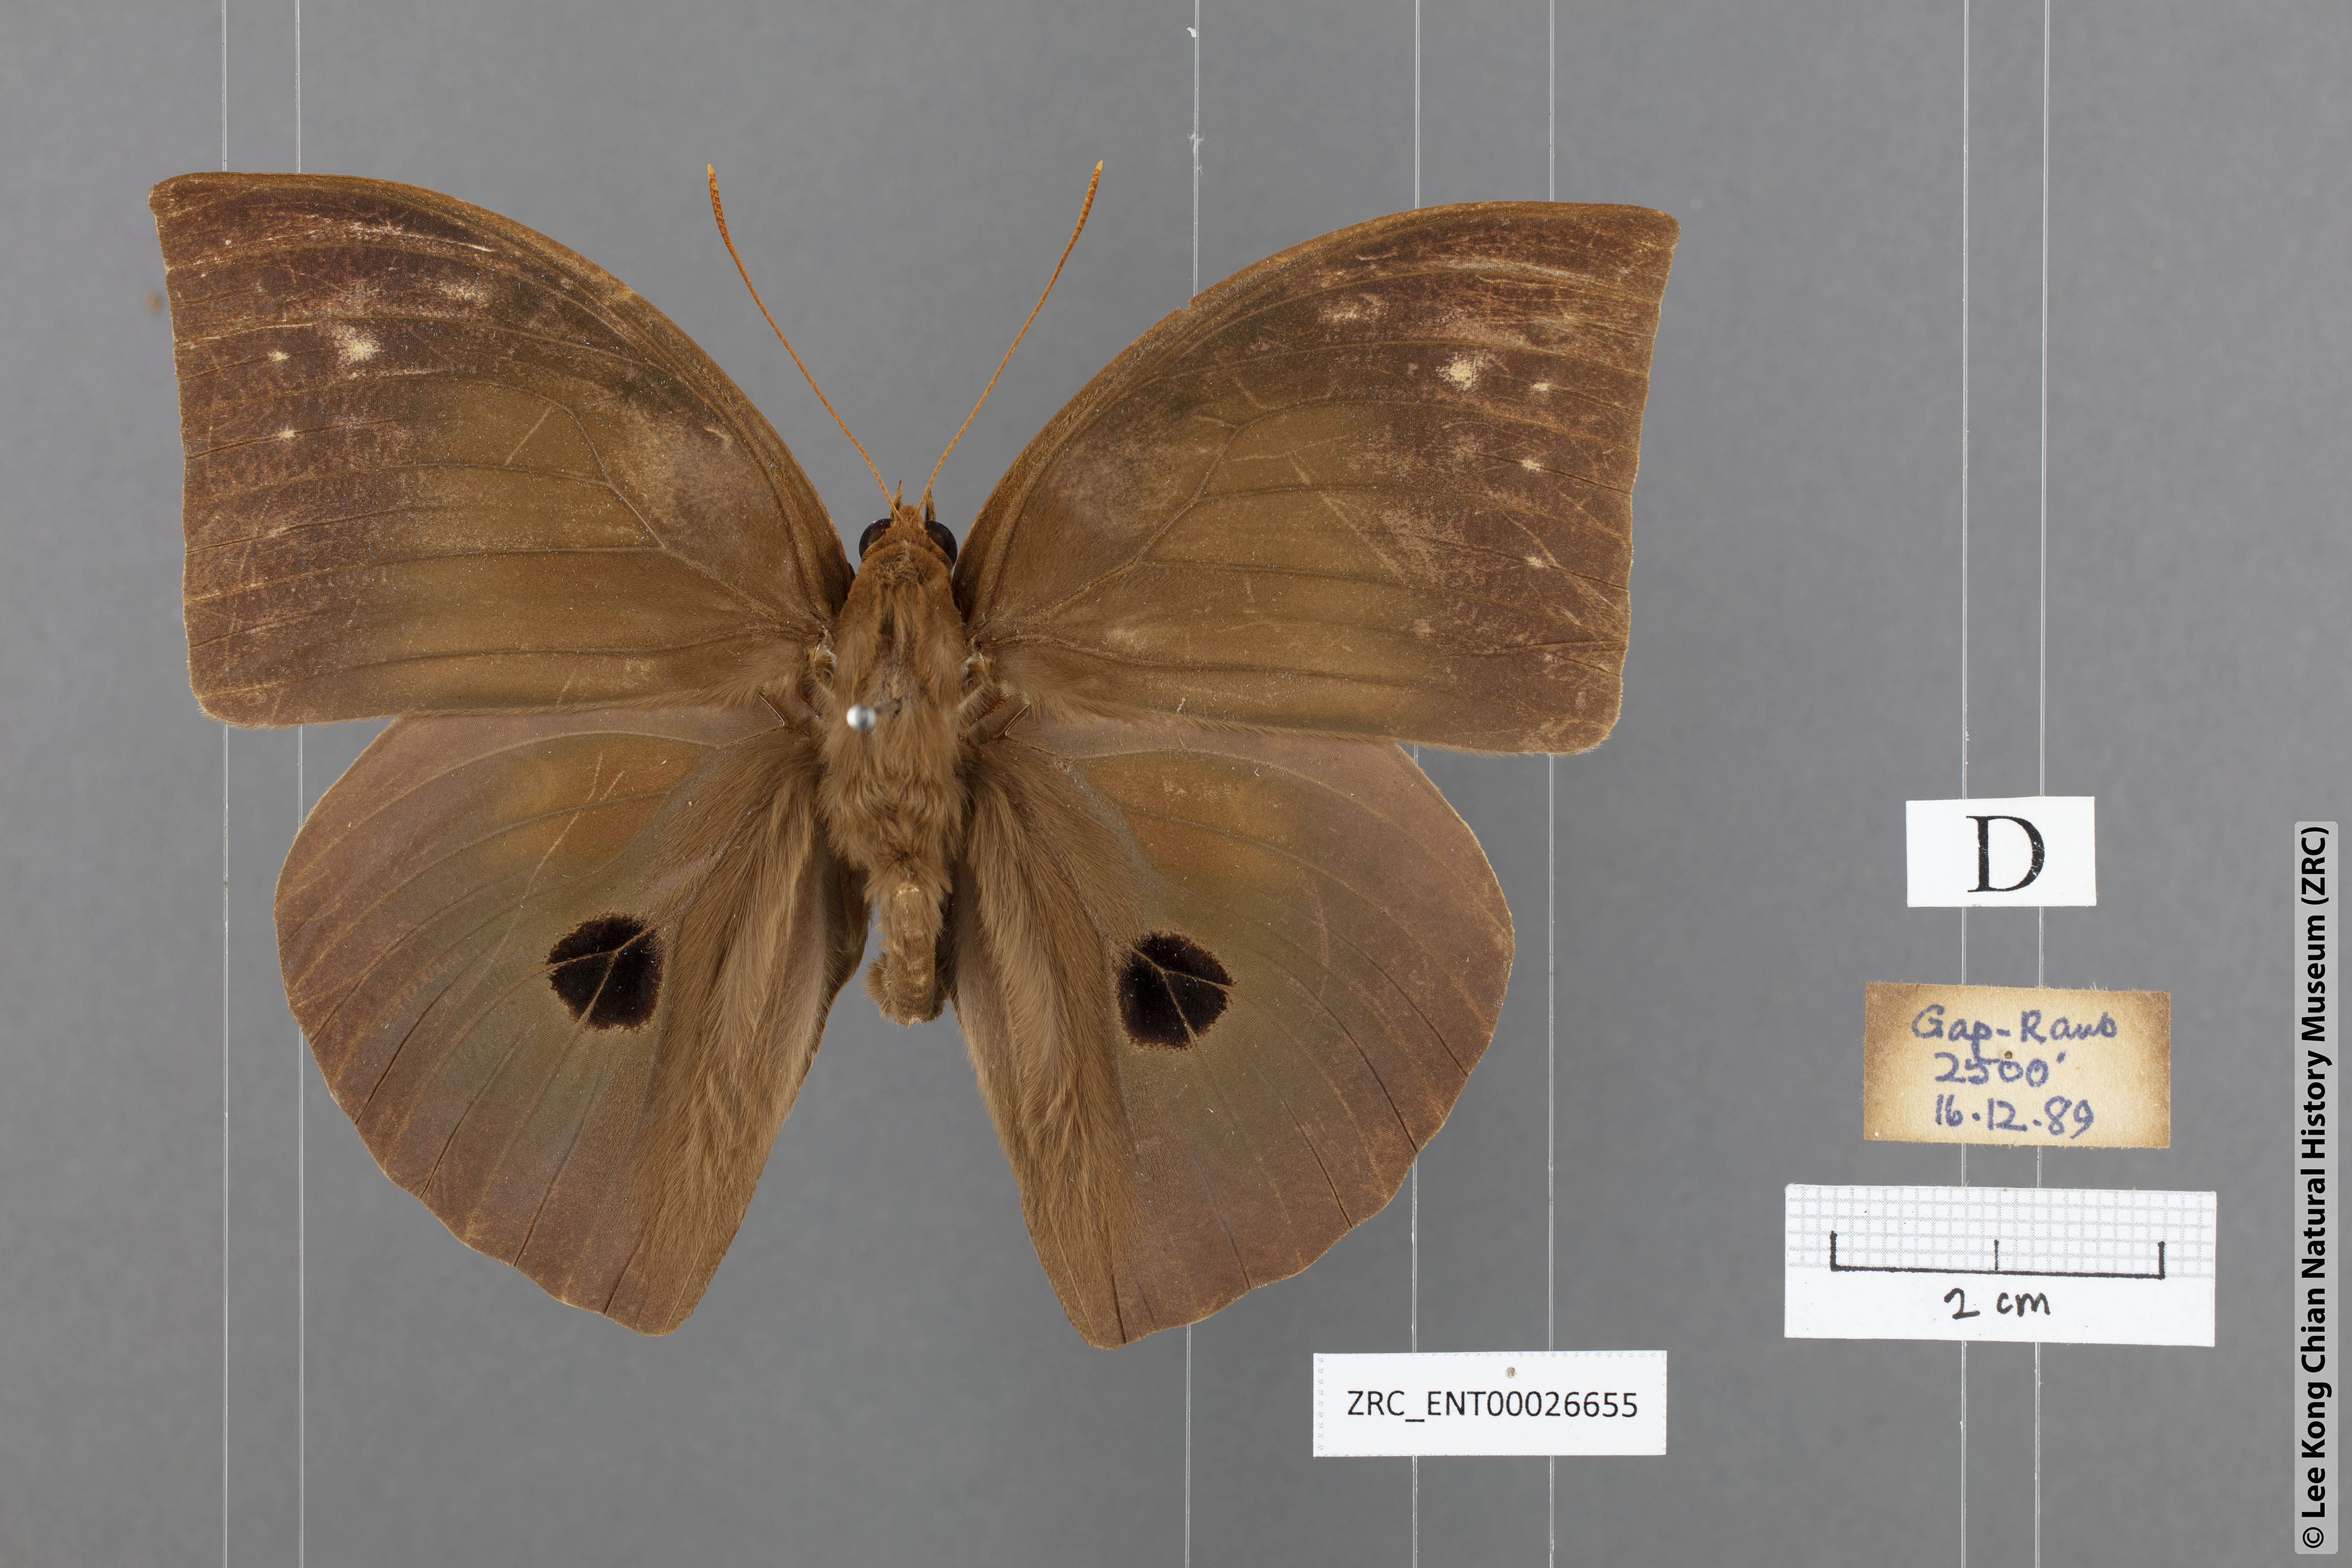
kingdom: Animalia
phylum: Arthropoda
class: Insecta
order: Lepidoptera
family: Nymphalidae
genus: Discophora
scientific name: Discophora timora
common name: Great duffer
